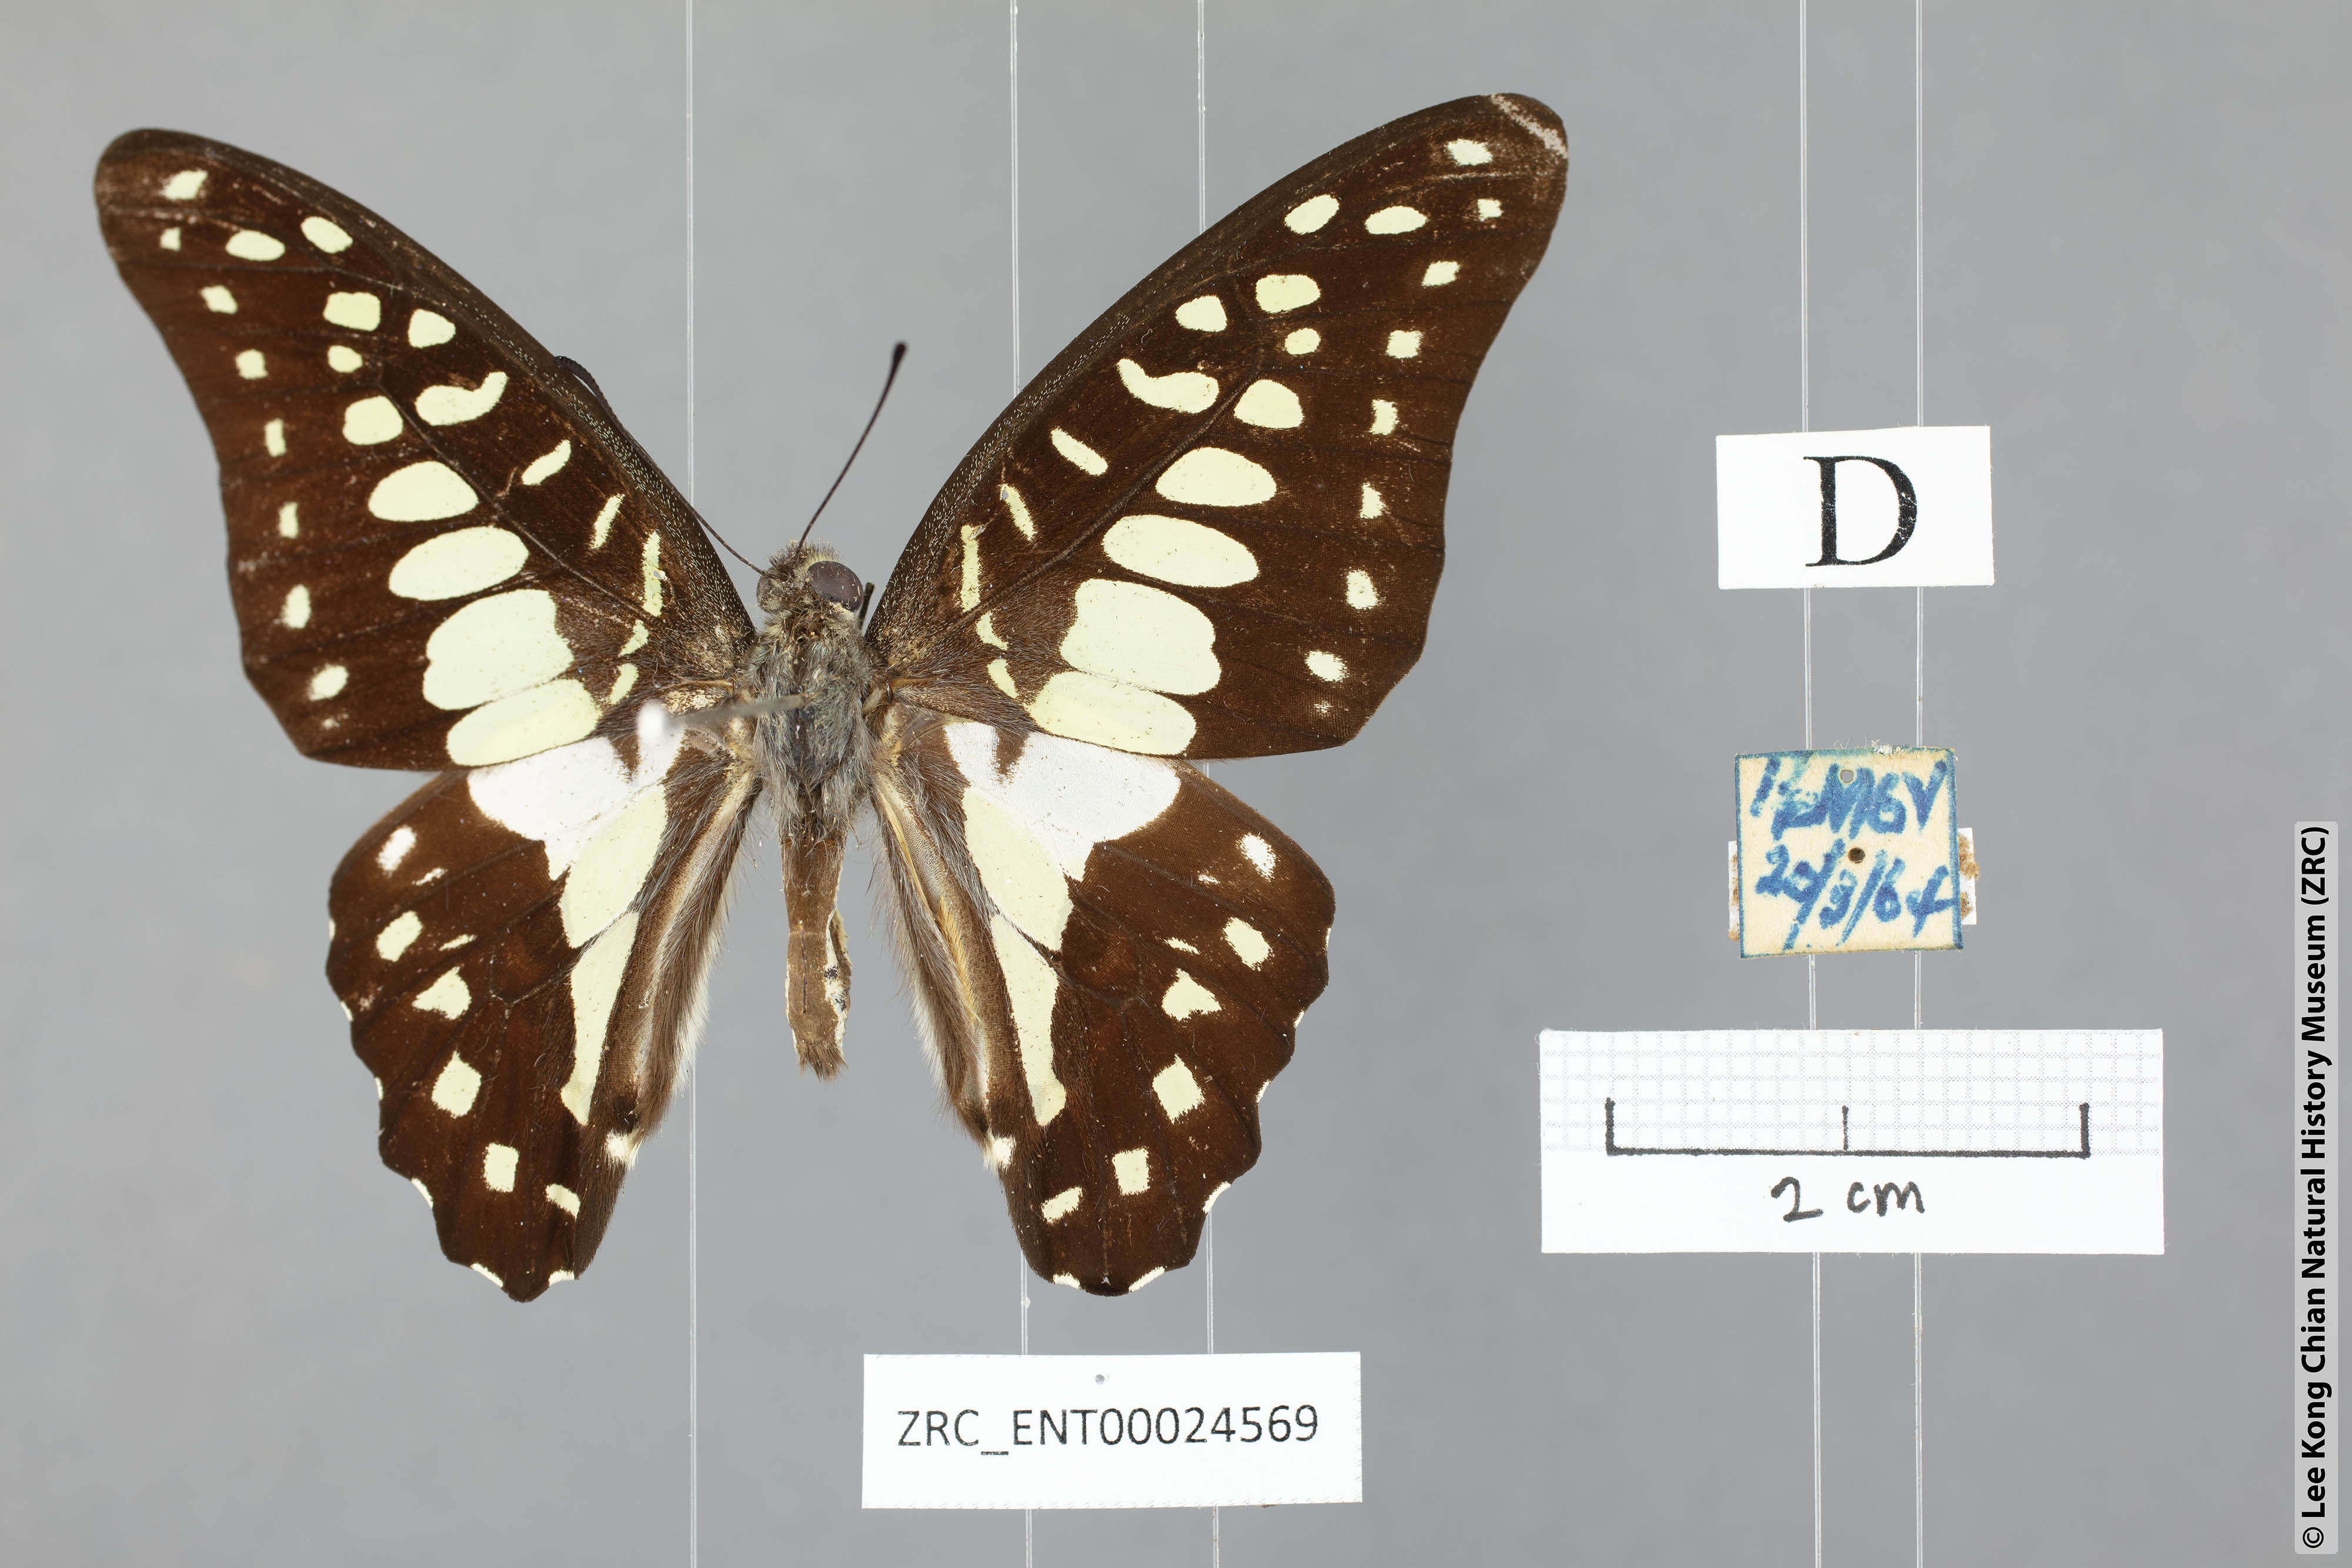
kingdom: Animalia
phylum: Arthropoda
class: Insecta
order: Lepidoptera
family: Papilionidae
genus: Graphium
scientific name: Graphium doson
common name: Common jay
